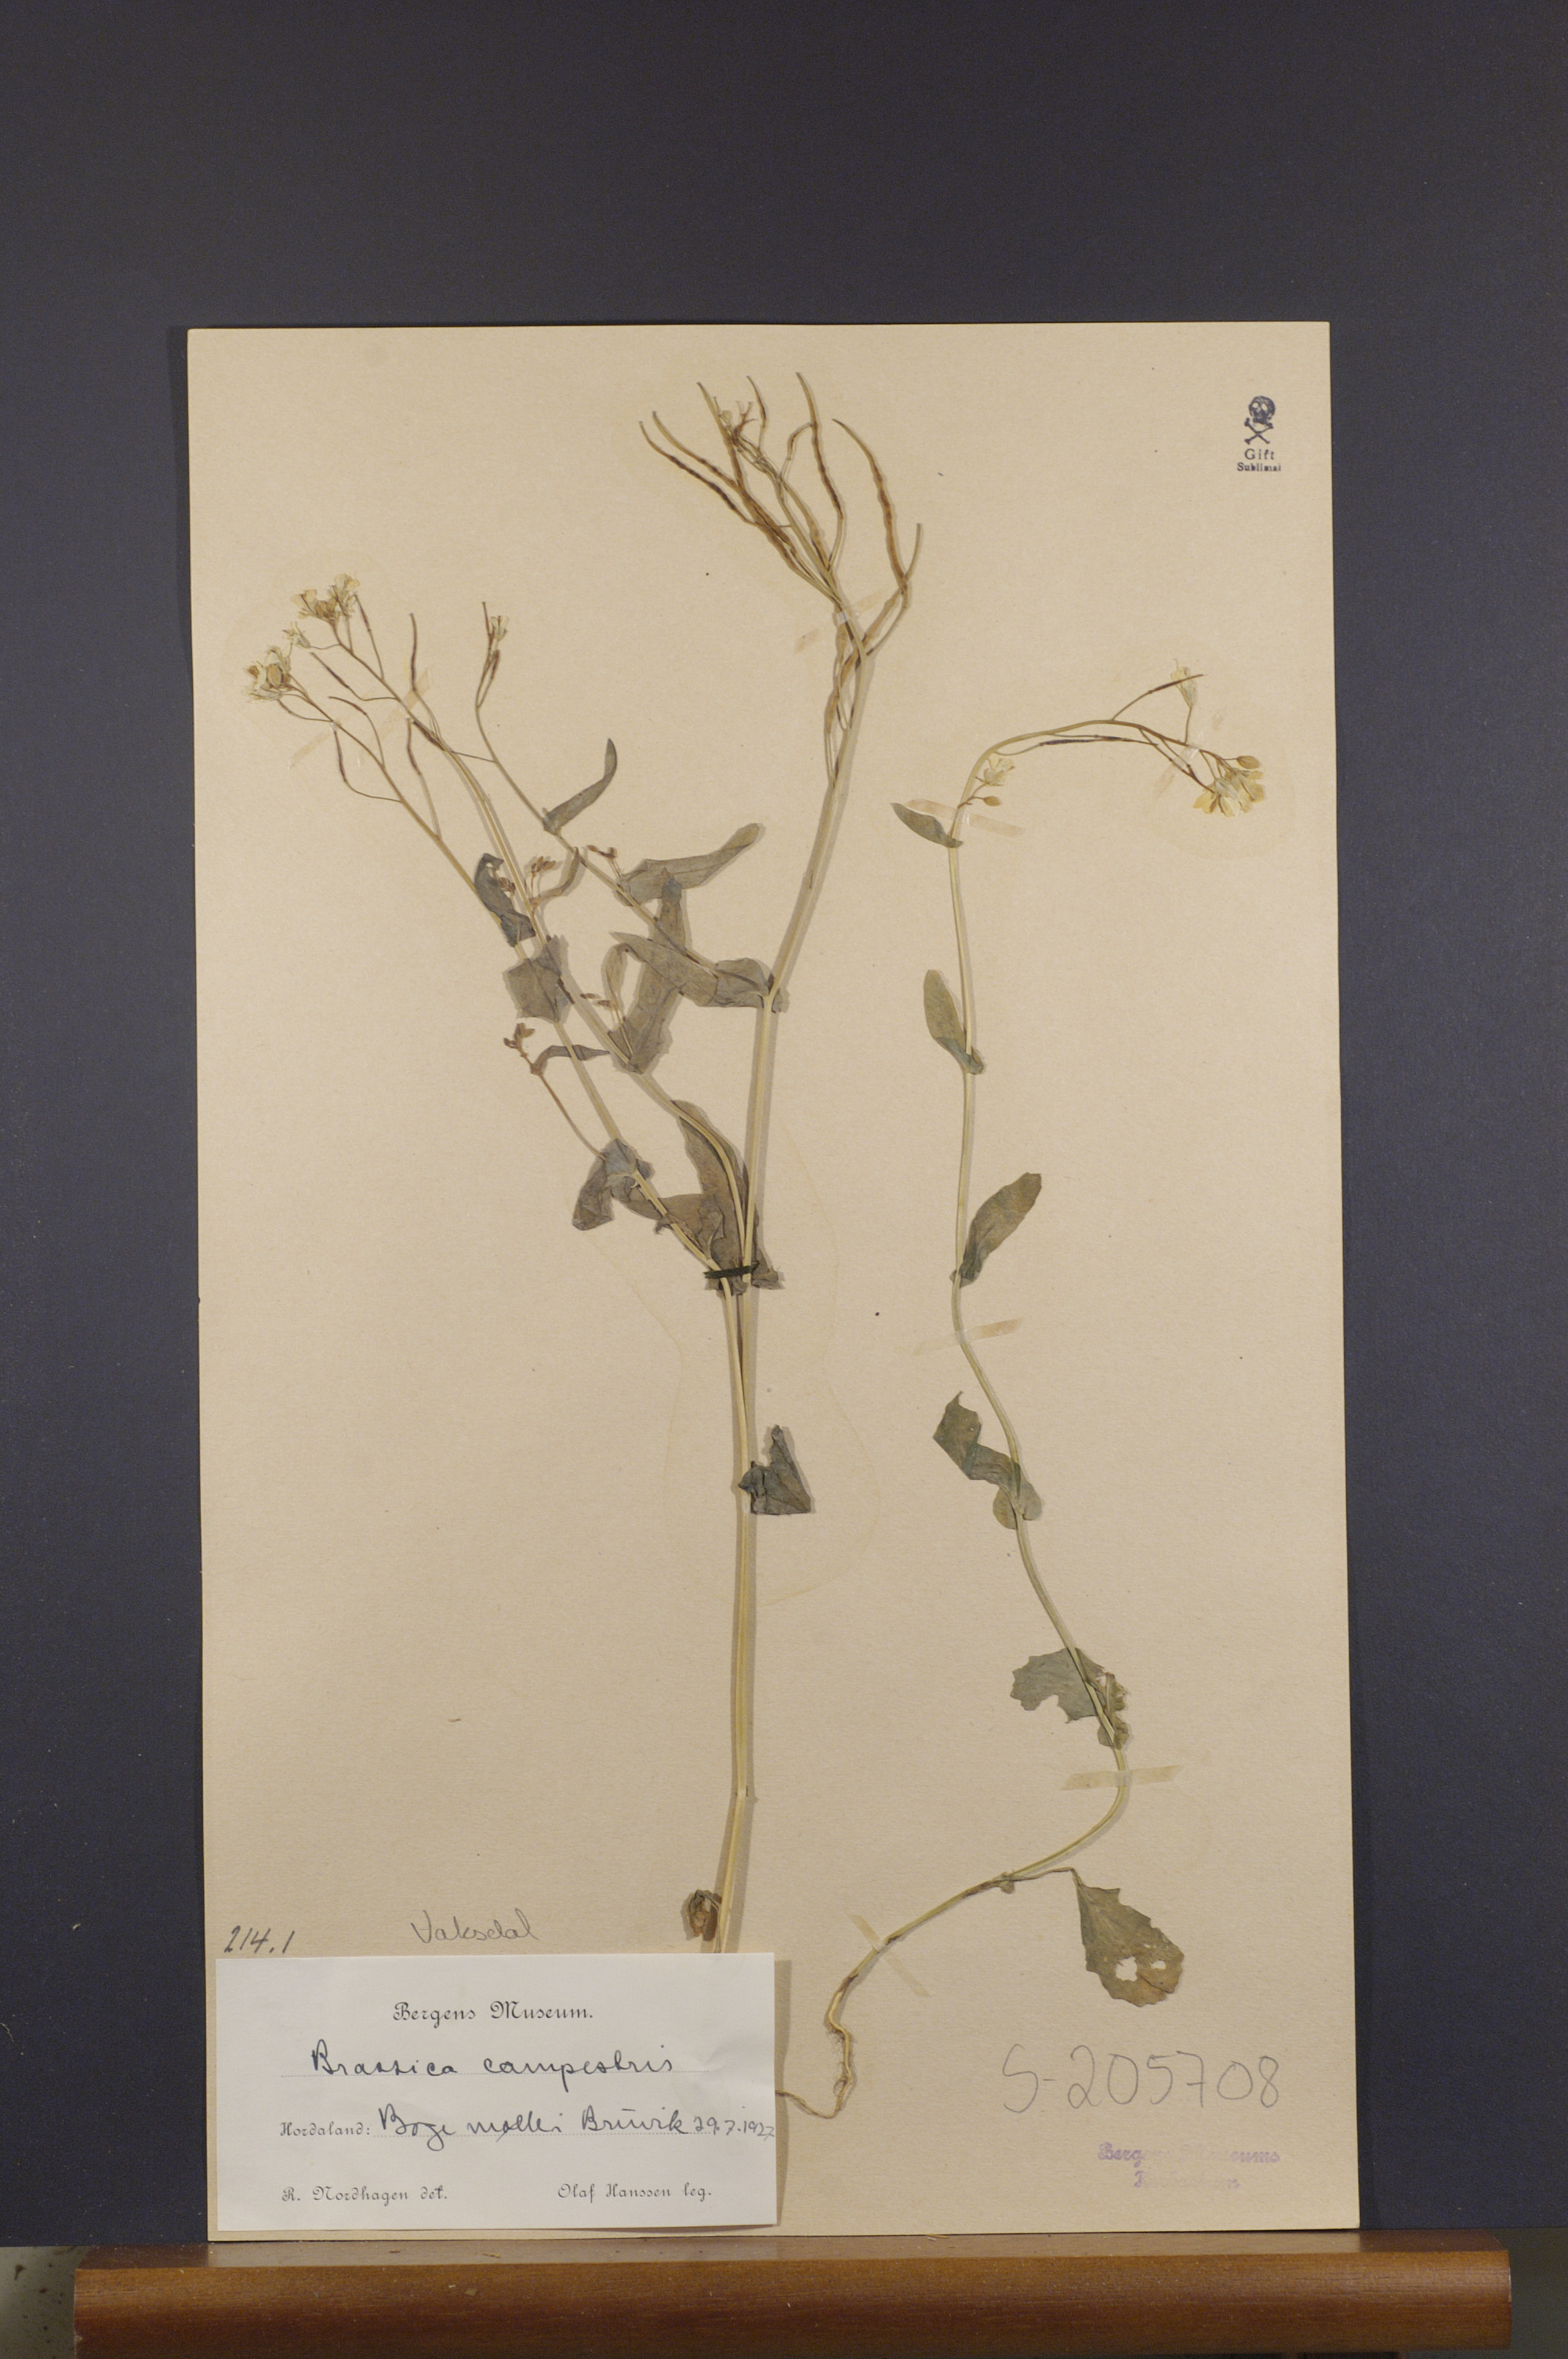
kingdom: Plantae
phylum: Tracheophyta
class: Magnoliopsida
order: Brassicales
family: Brassicaceae
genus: Brassica
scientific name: Brassica rapa
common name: Field mustard
